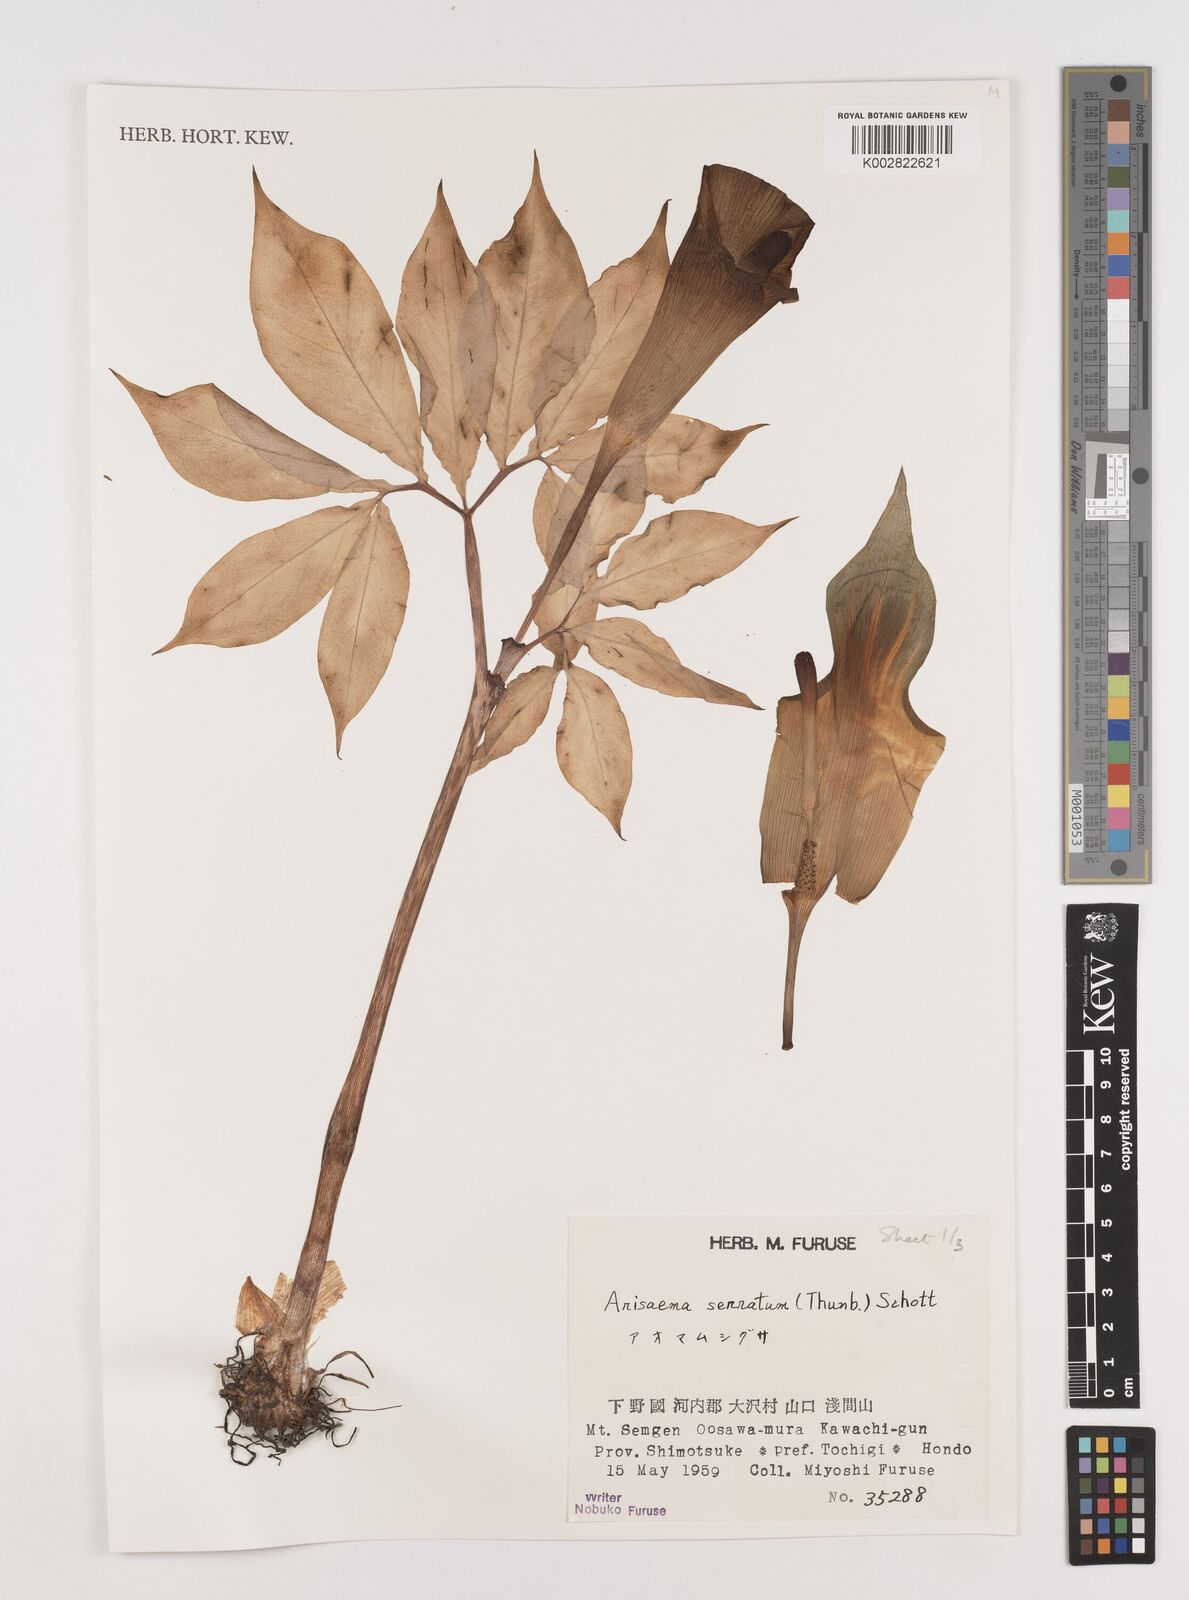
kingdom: Plantae
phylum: Tracheophyta
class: Liliopsida
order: Alismatales
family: Araceae
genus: Arisaema
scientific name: Arisaema serratum
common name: Japanese arisaema
